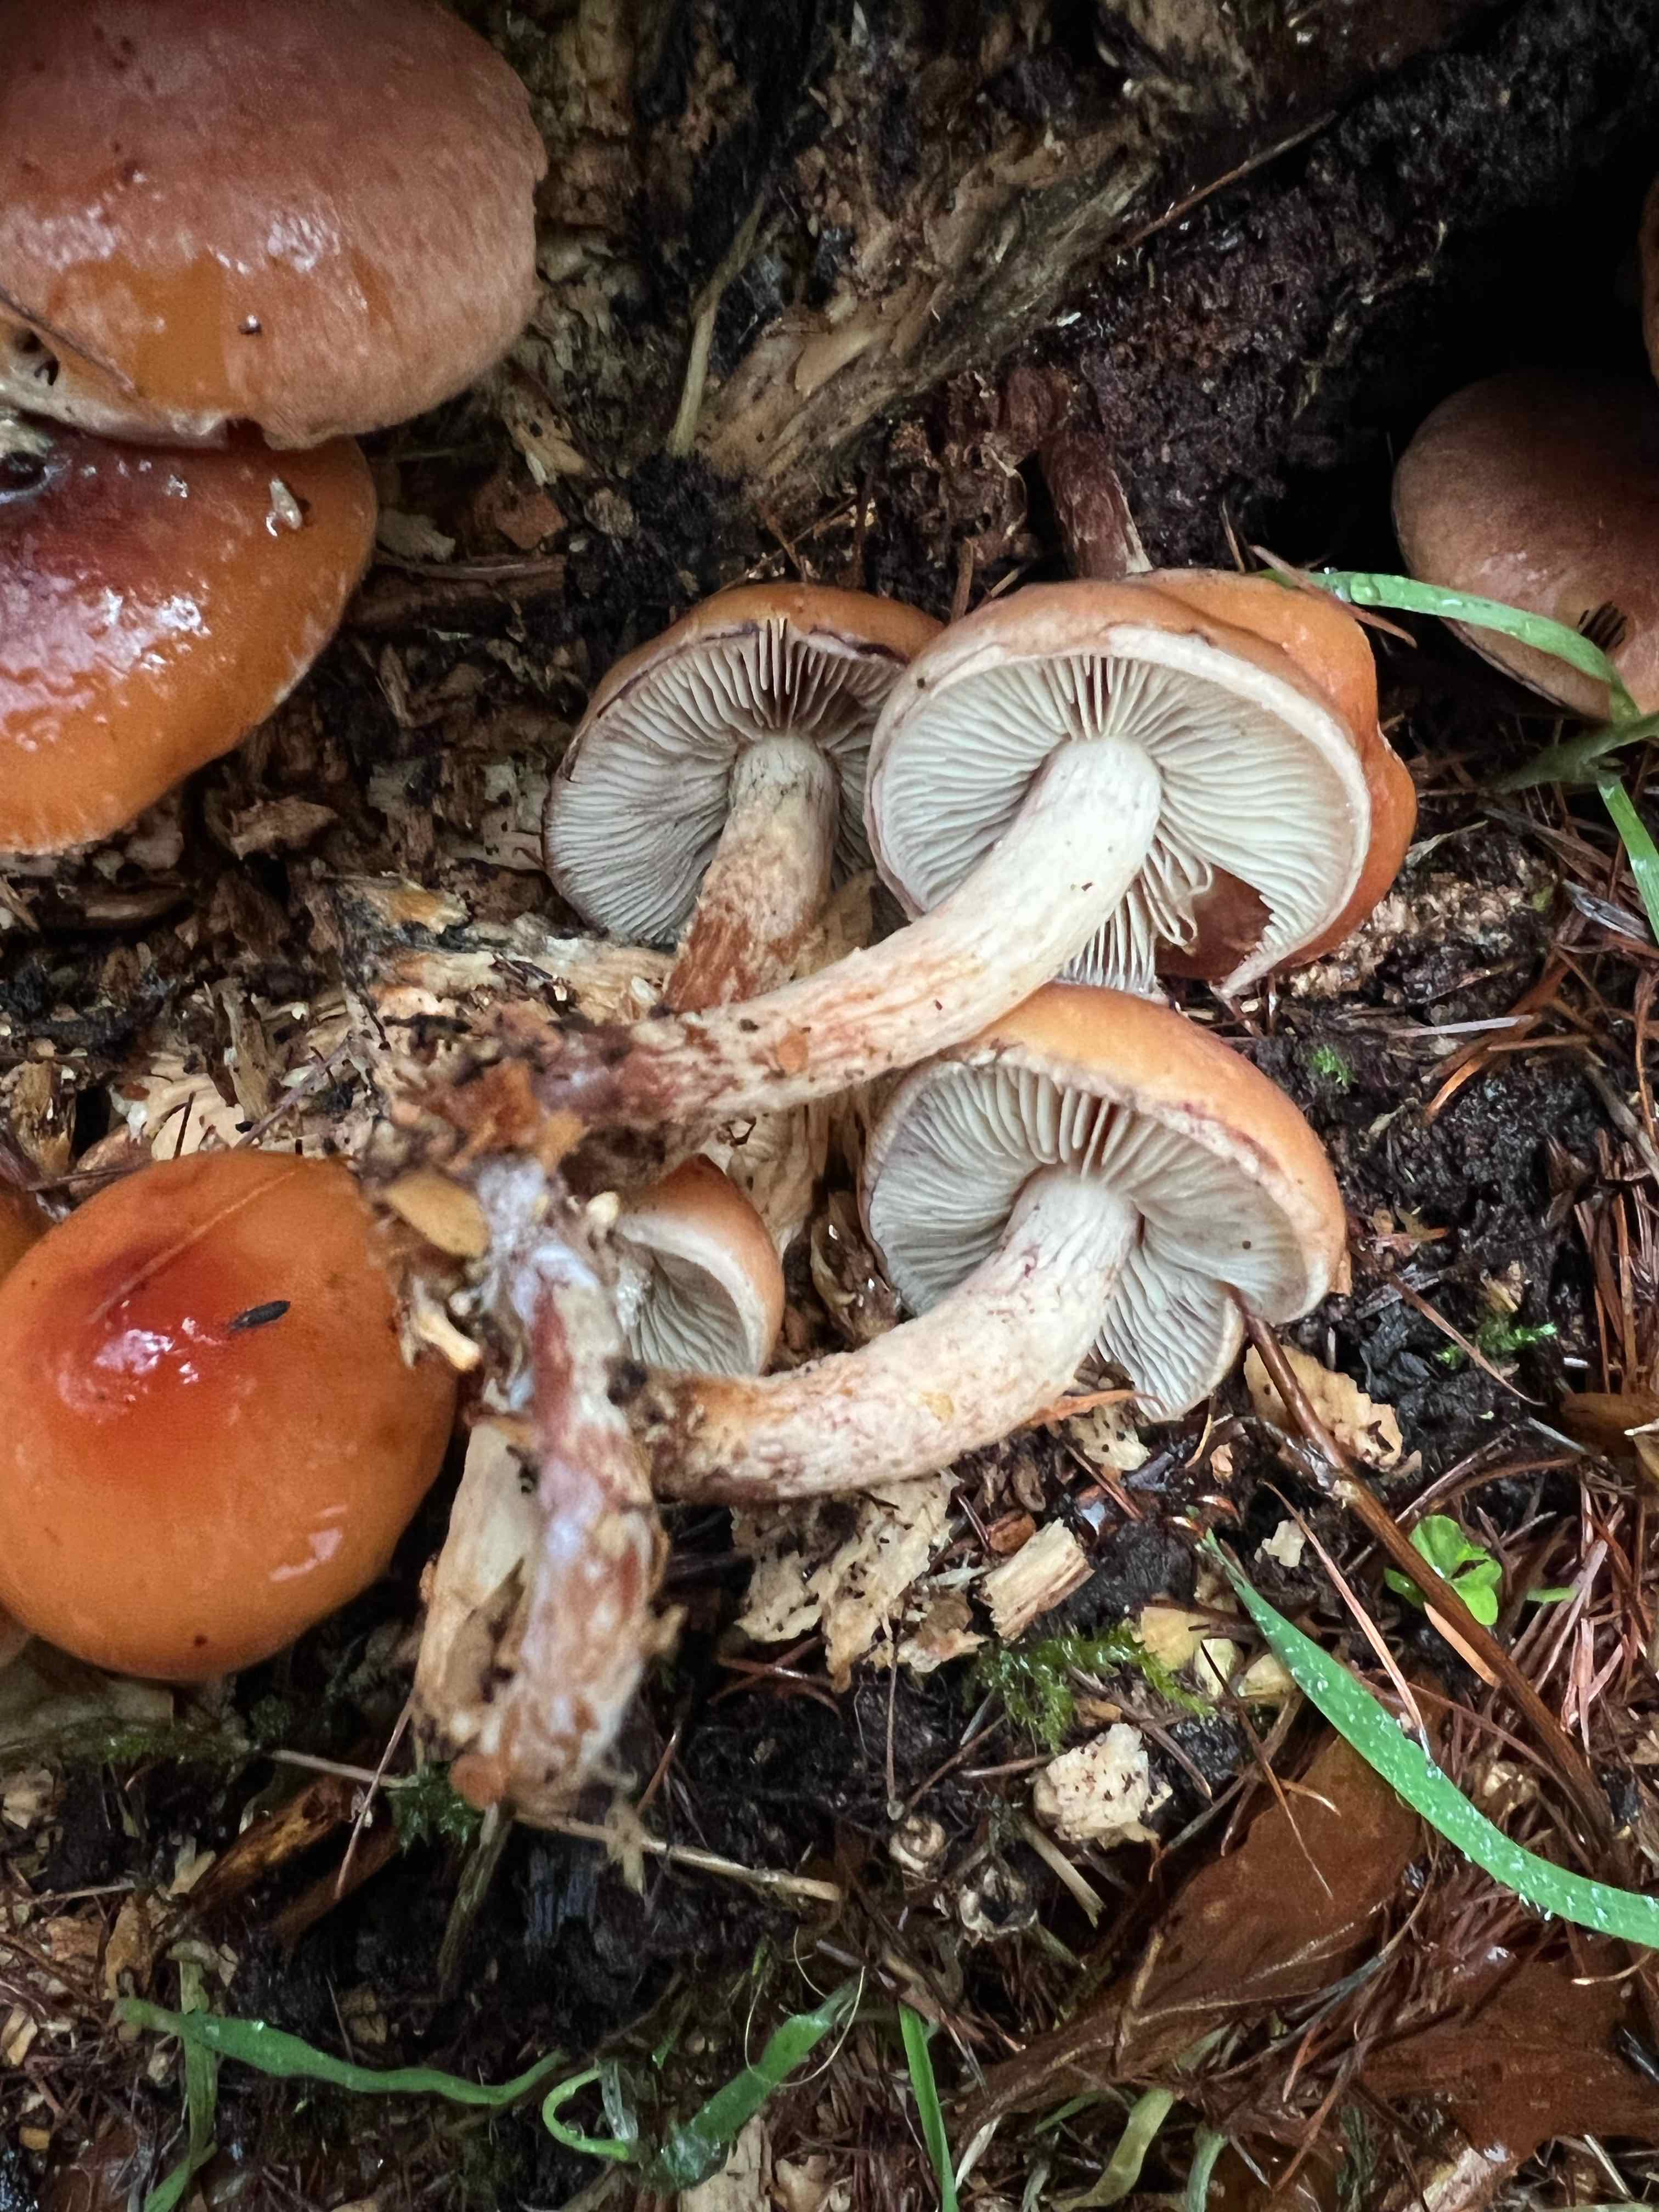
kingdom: Fungi
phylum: Basidiomycota
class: Agaricomycetes
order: Agaricales
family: Strophariaceae
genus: Hypholoma
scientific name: Hypholoma lateritium
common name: teglrød svovlhat
